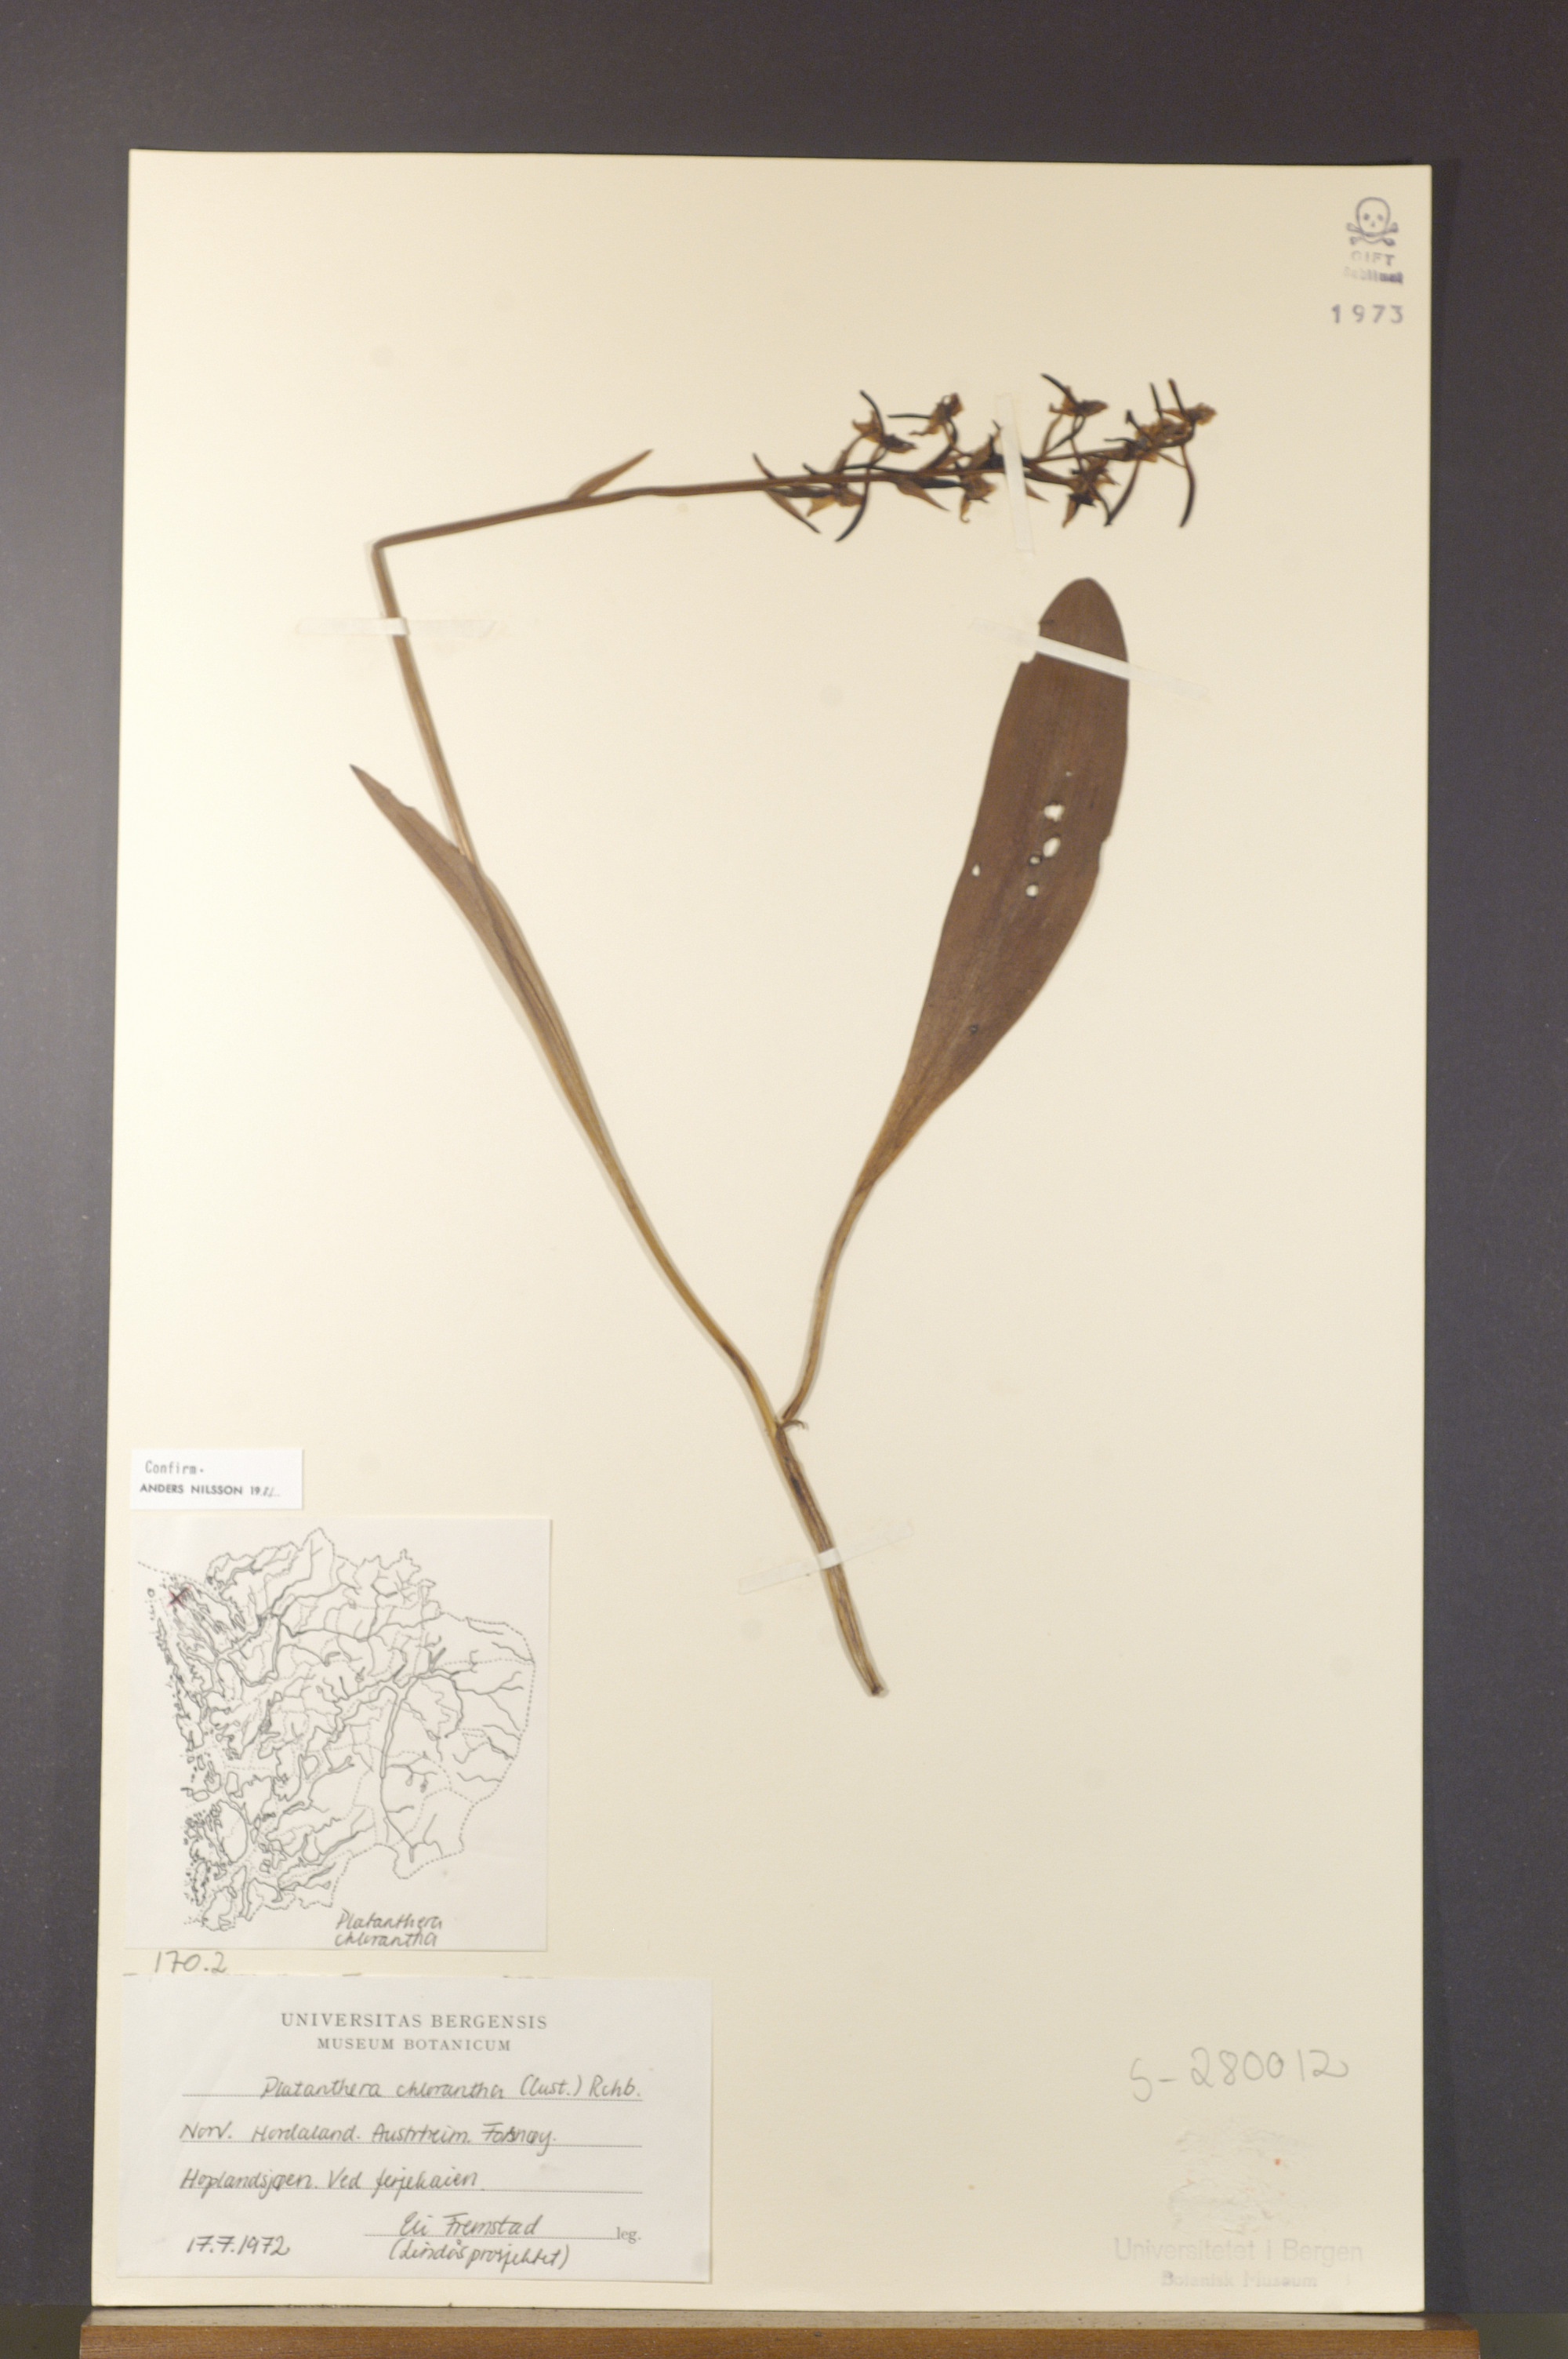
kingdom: Plantae
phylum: Tracheophyta
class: Liliopsida
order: Asparagales
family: Orchidaceae
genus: Platanthera
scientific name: Platanthera chlorantha
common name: Greater butterfly-orchid
